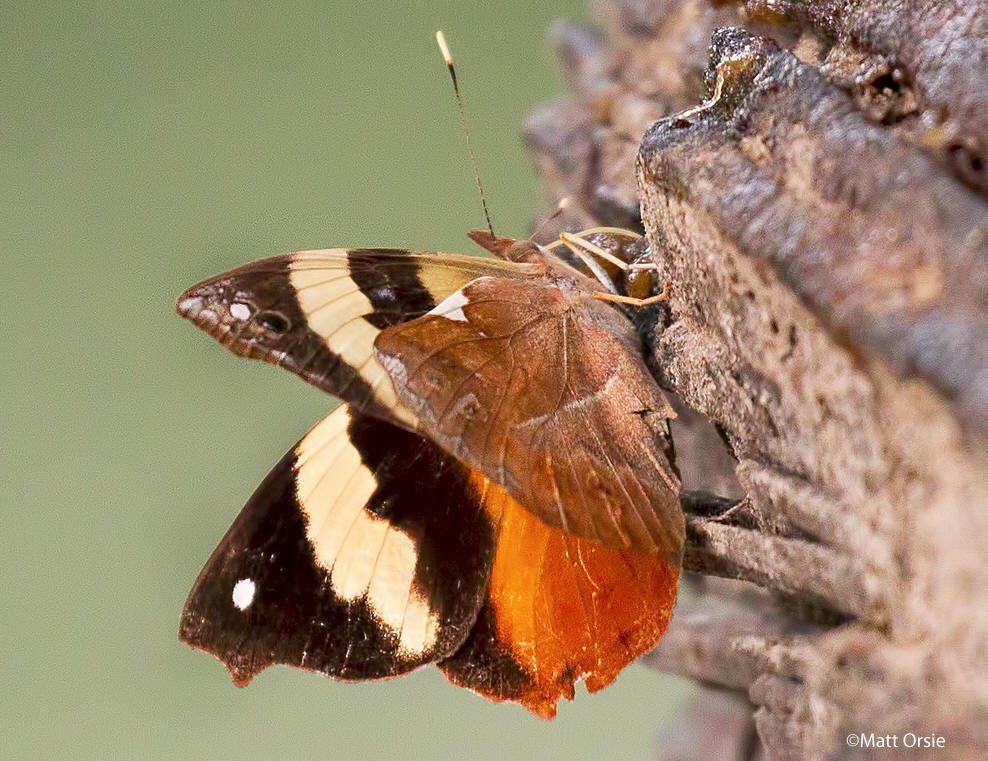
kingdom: Animalia
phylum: Arthropoda
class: Insecta
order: Lepidoptera
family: Nymphalidae
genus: Epiphile
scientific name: Epiphile adrasta
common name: Common Banner
